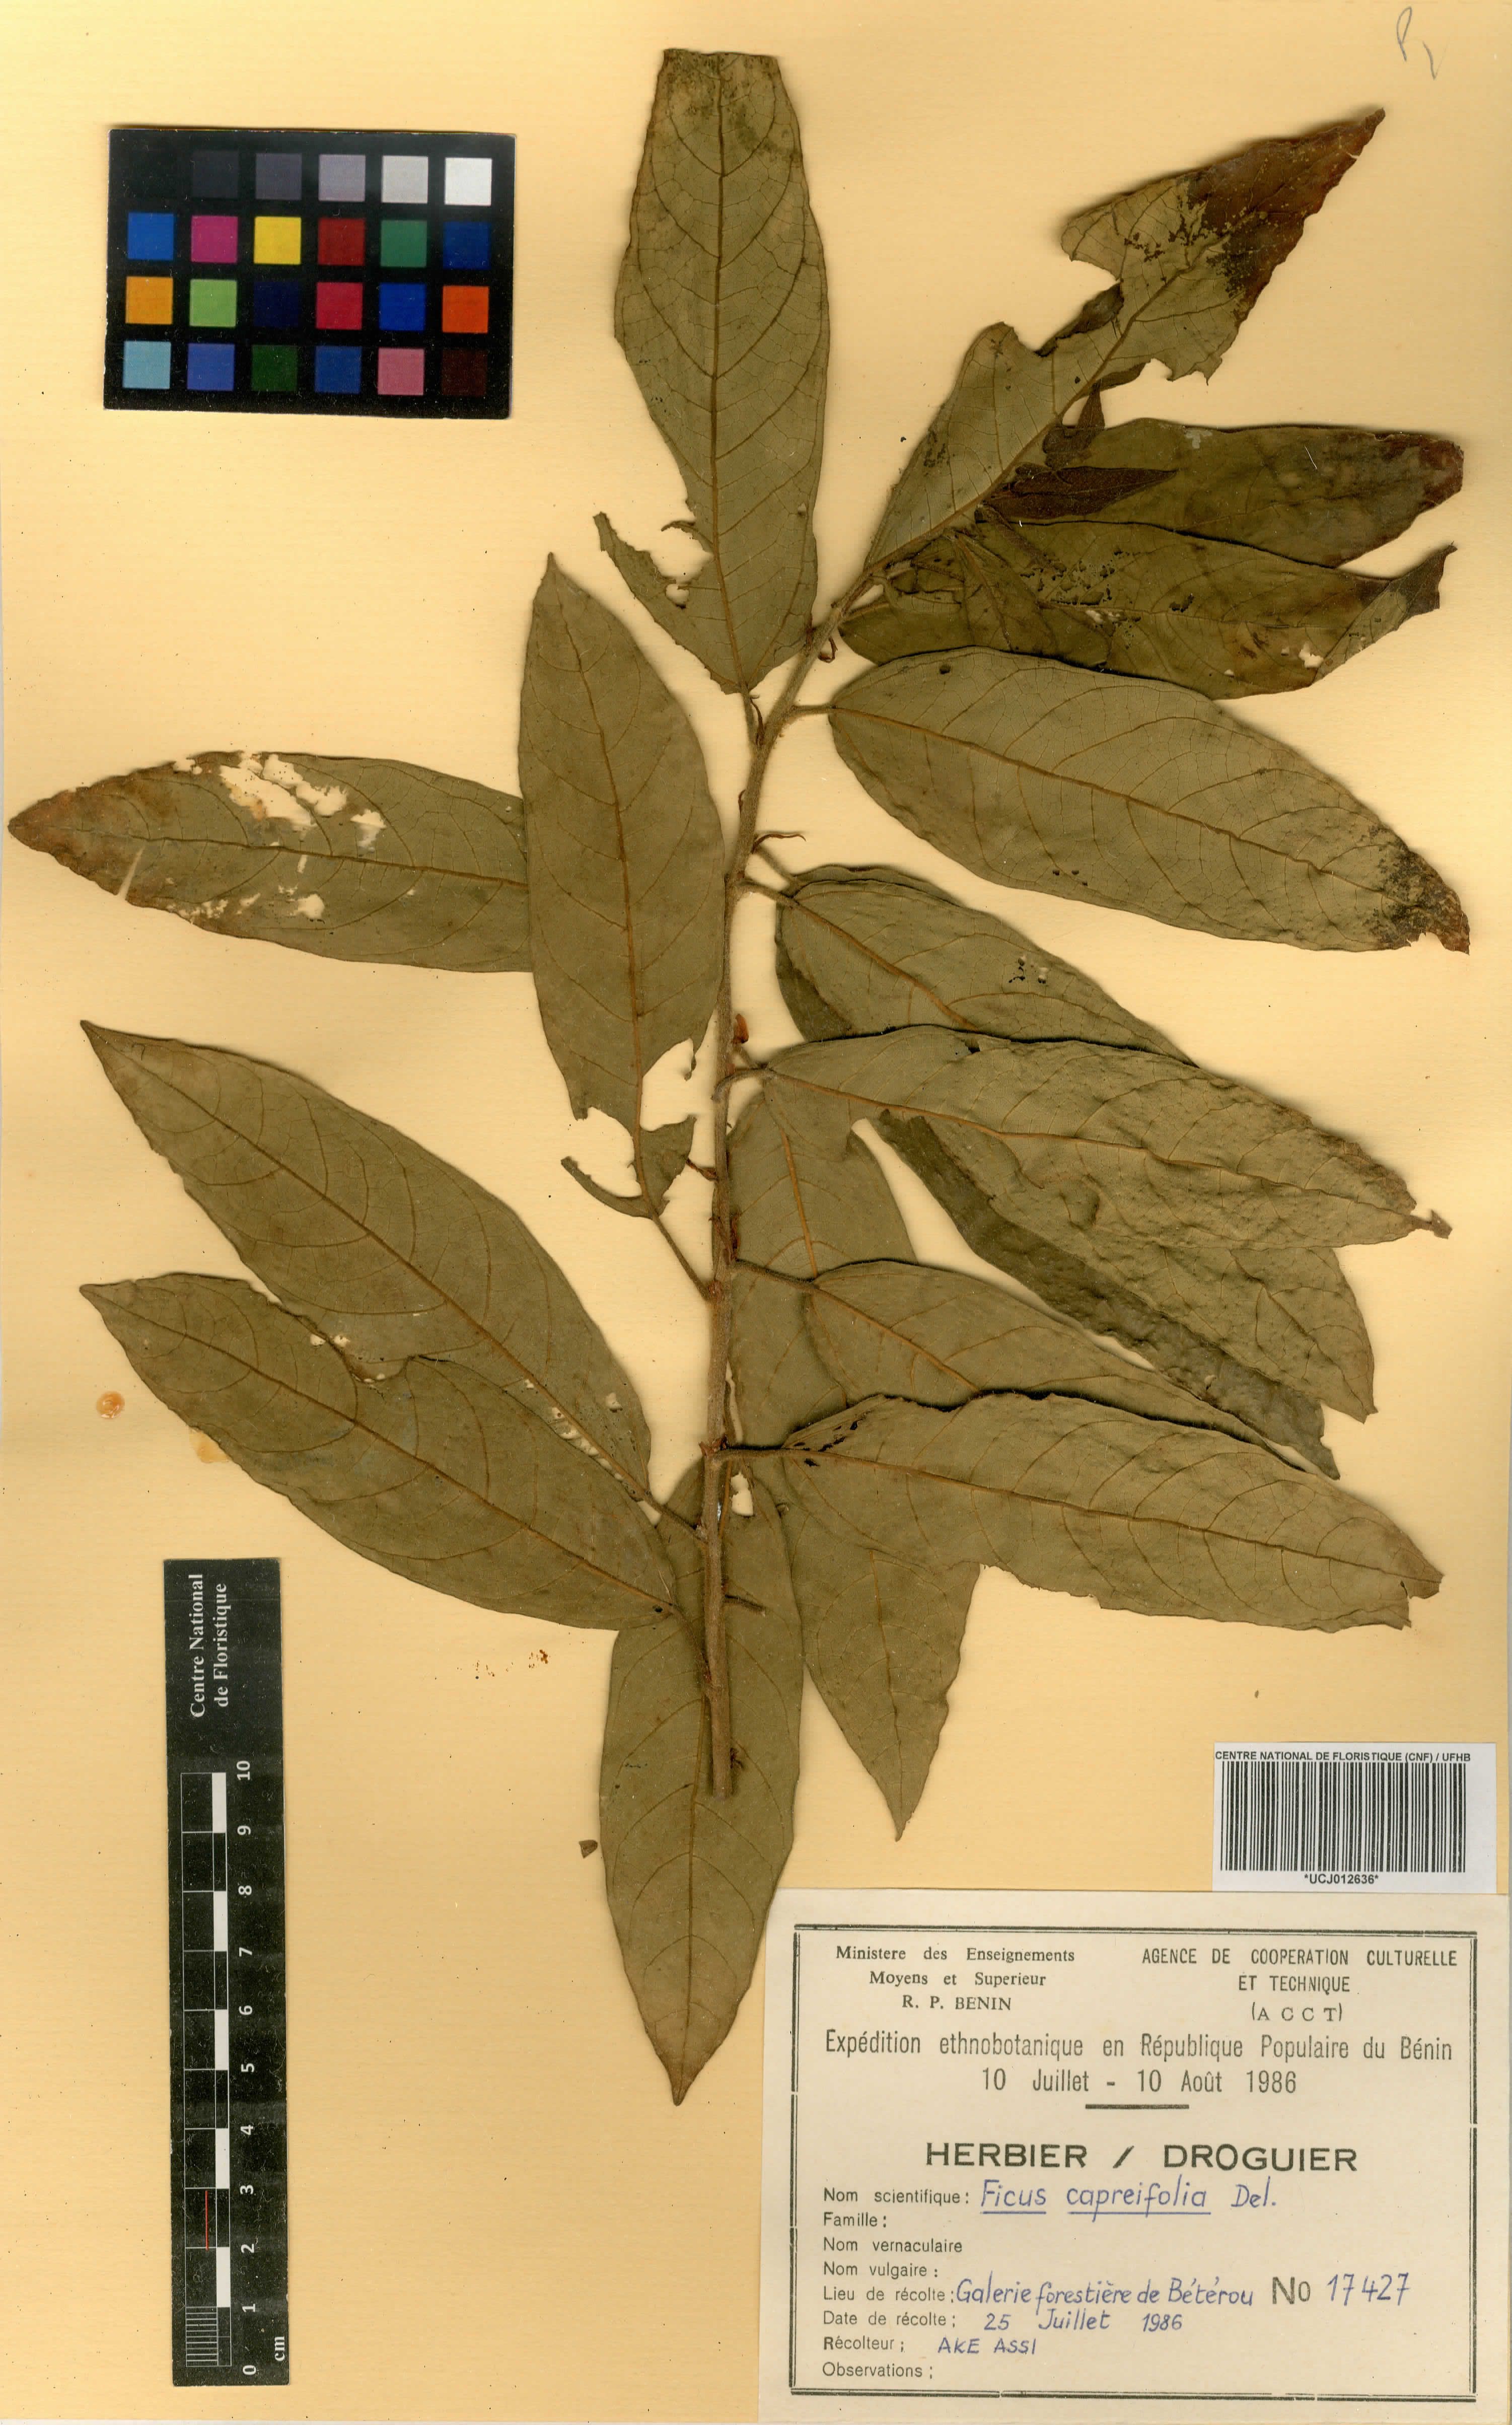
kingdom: Plantae
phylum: Tracheophyta
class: Magnoliopsida
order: Rosales
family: Moraceae
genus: Ficus
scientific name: Ficus capreifolia
